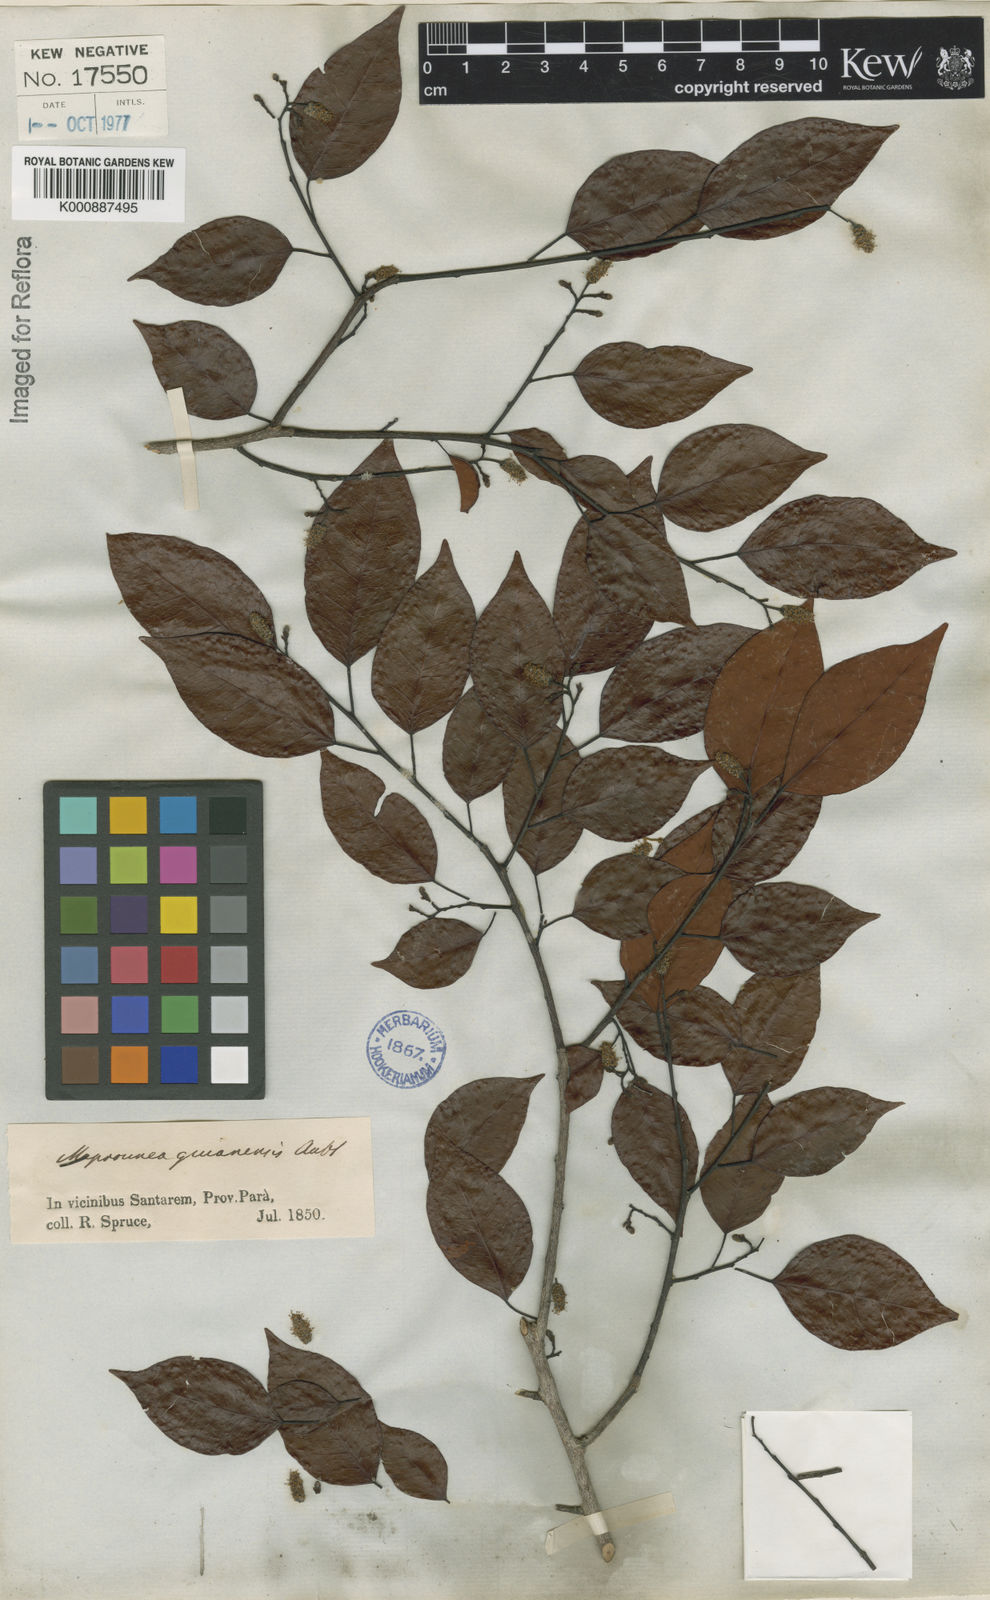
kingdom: Plantae
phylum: Tracheophyta
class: Magnoliopsida
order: Malpighiales
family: Euphorbiaceae
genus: Maprounea
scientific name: Maprounea guianensis
